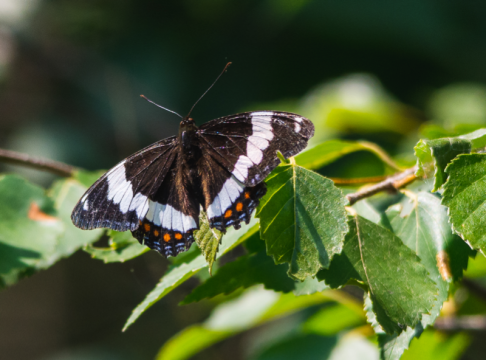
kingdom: Animalia
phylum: Arthropoda
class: Insecta
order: Lepidoptera
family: Nymphalidae
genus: Limenitis
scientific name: Limenitis arthemis
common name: Red-spotted Admiral
